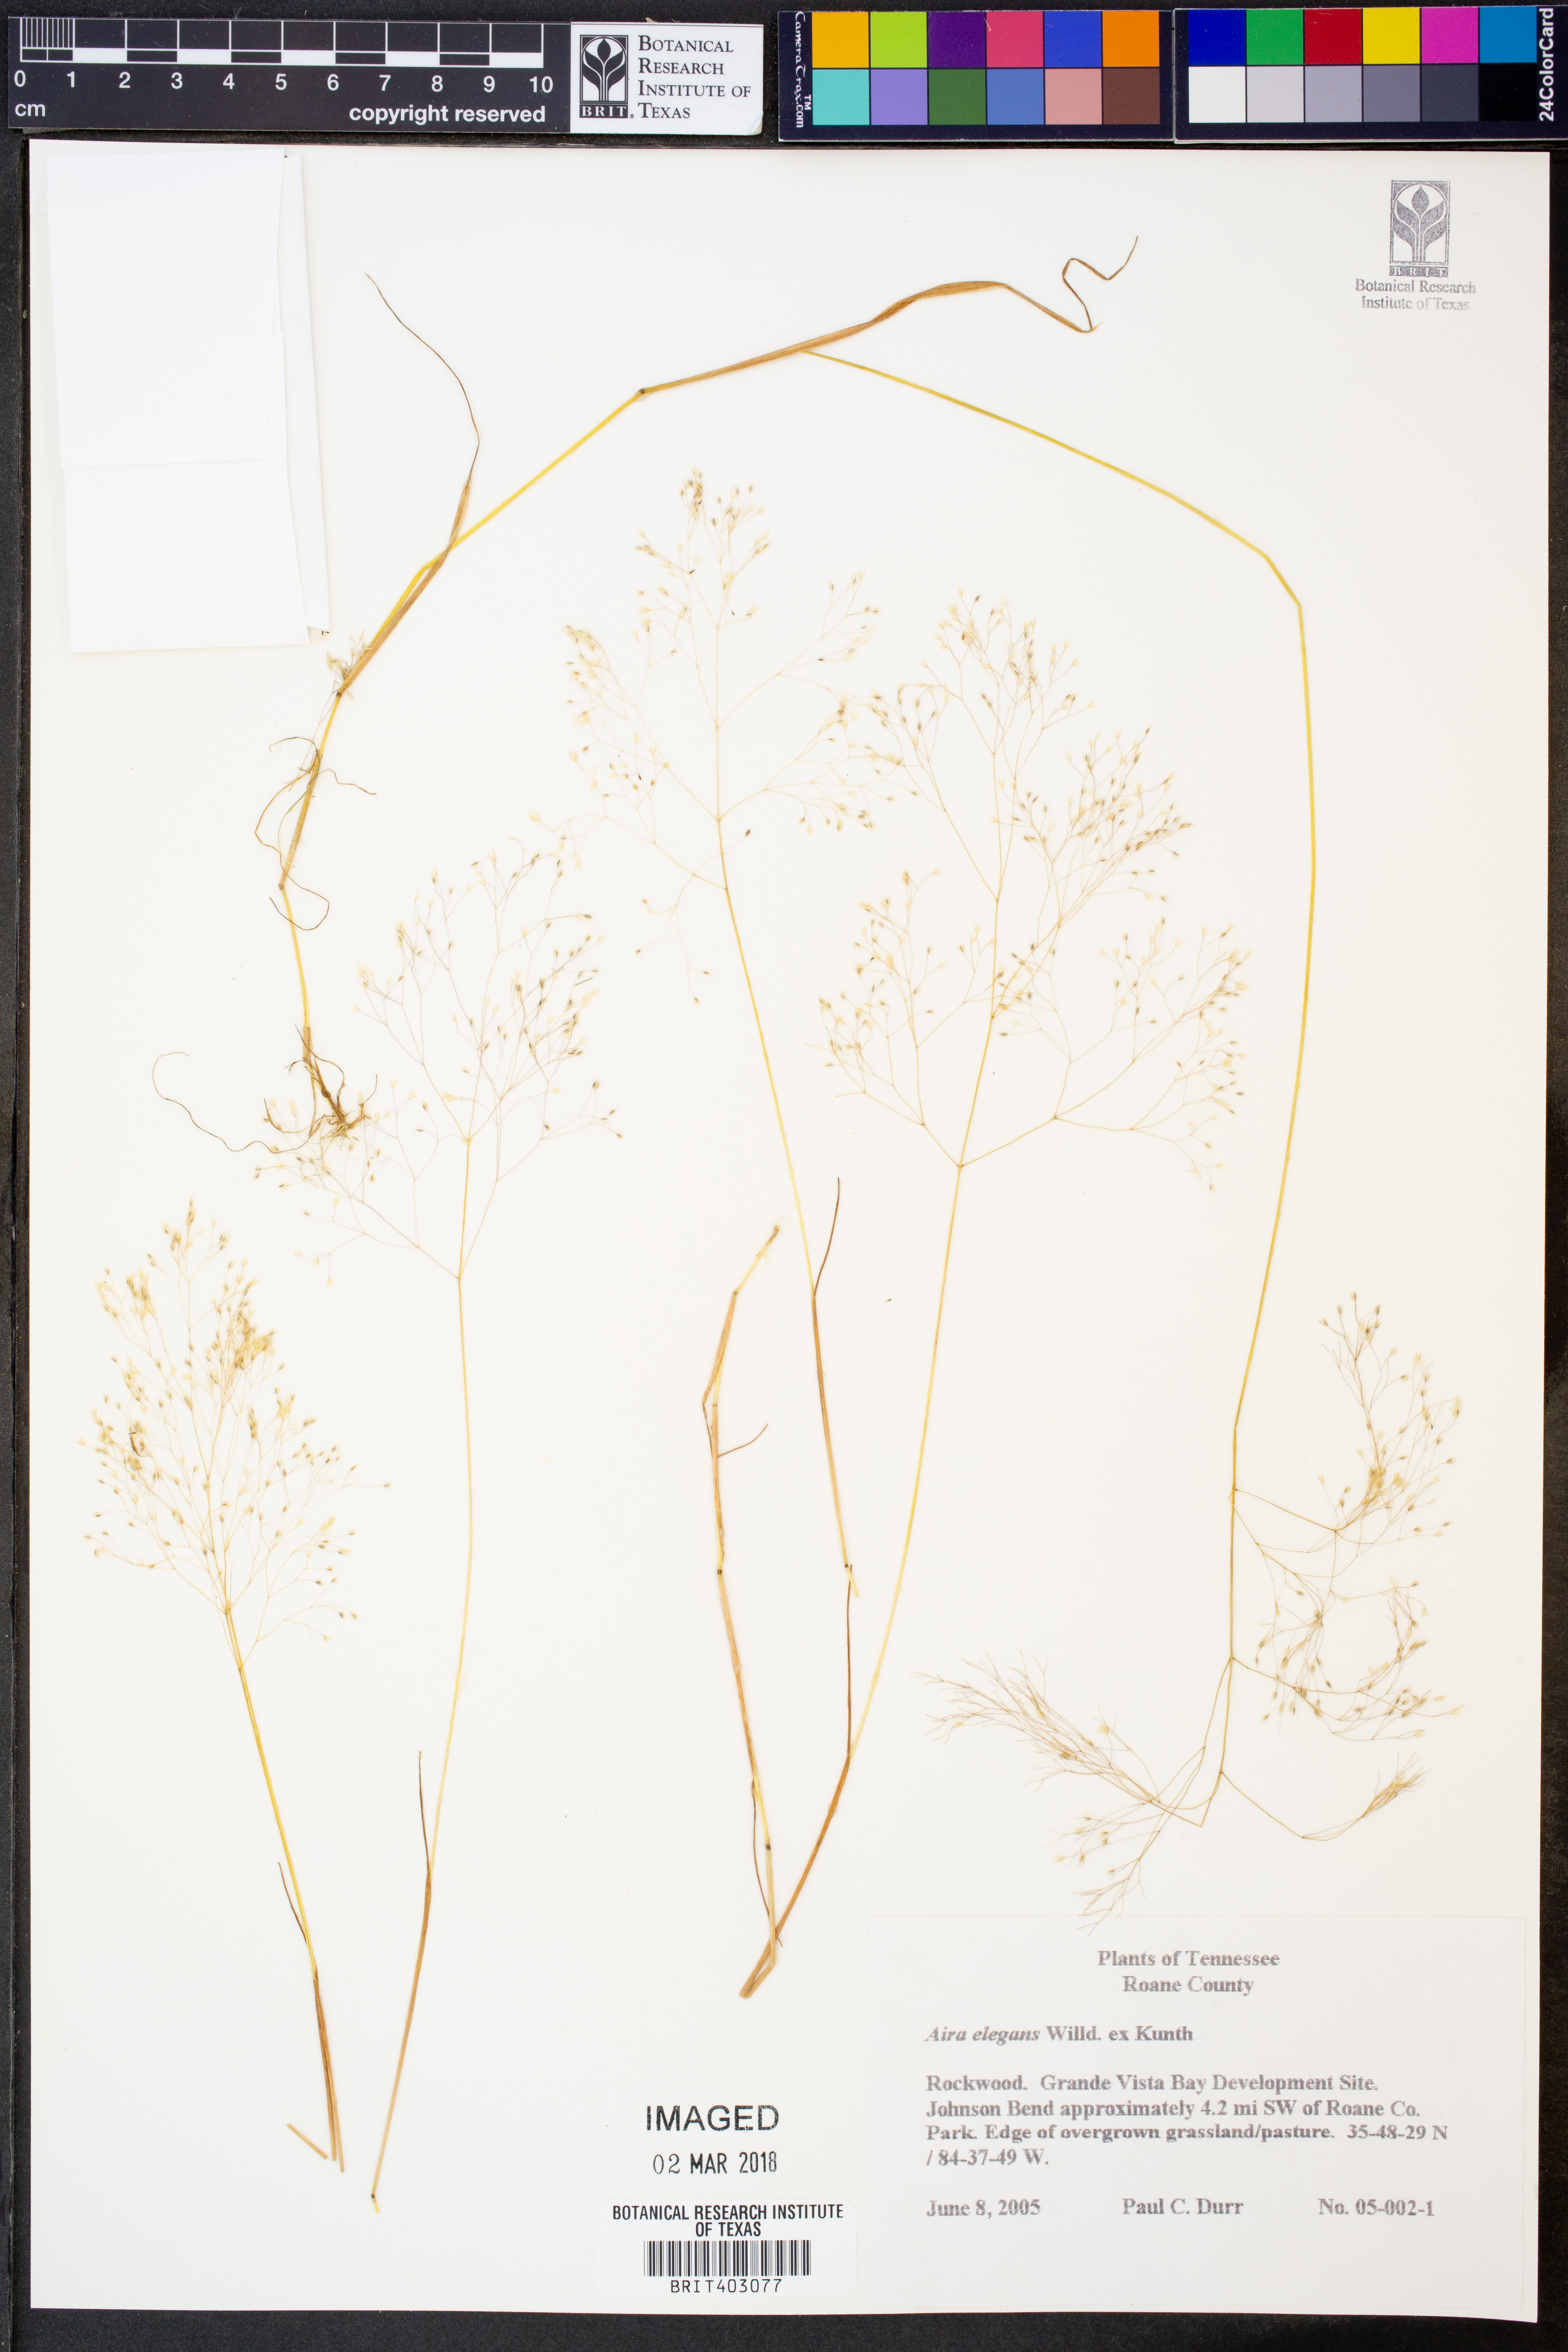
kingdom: Plantae
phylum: Tracheophyta
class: Liliopsida
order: Poales
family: Poaceae
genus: Aira
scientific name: Aira elegans
